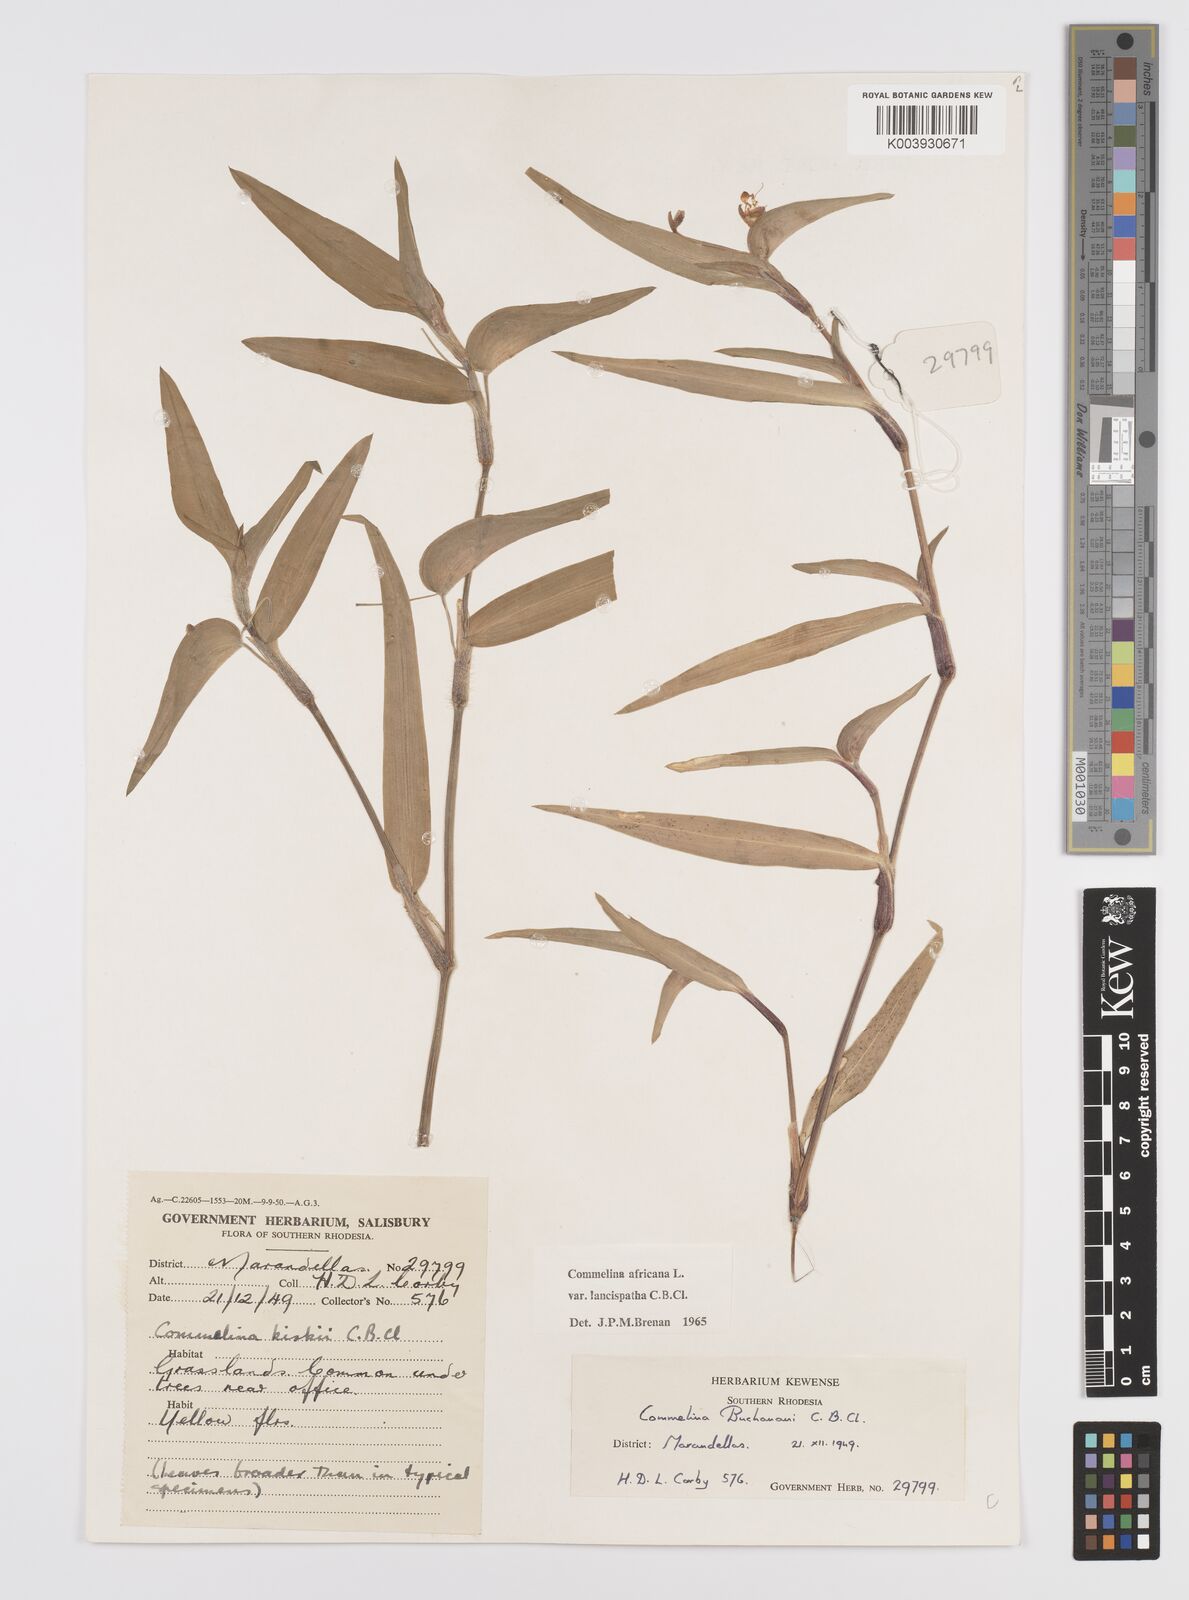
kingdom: Plantae
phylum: Tracheophyta
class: Liliopsida
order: Commelinales
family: Commelinaceae
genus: Commelina
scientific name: Commelina africana
